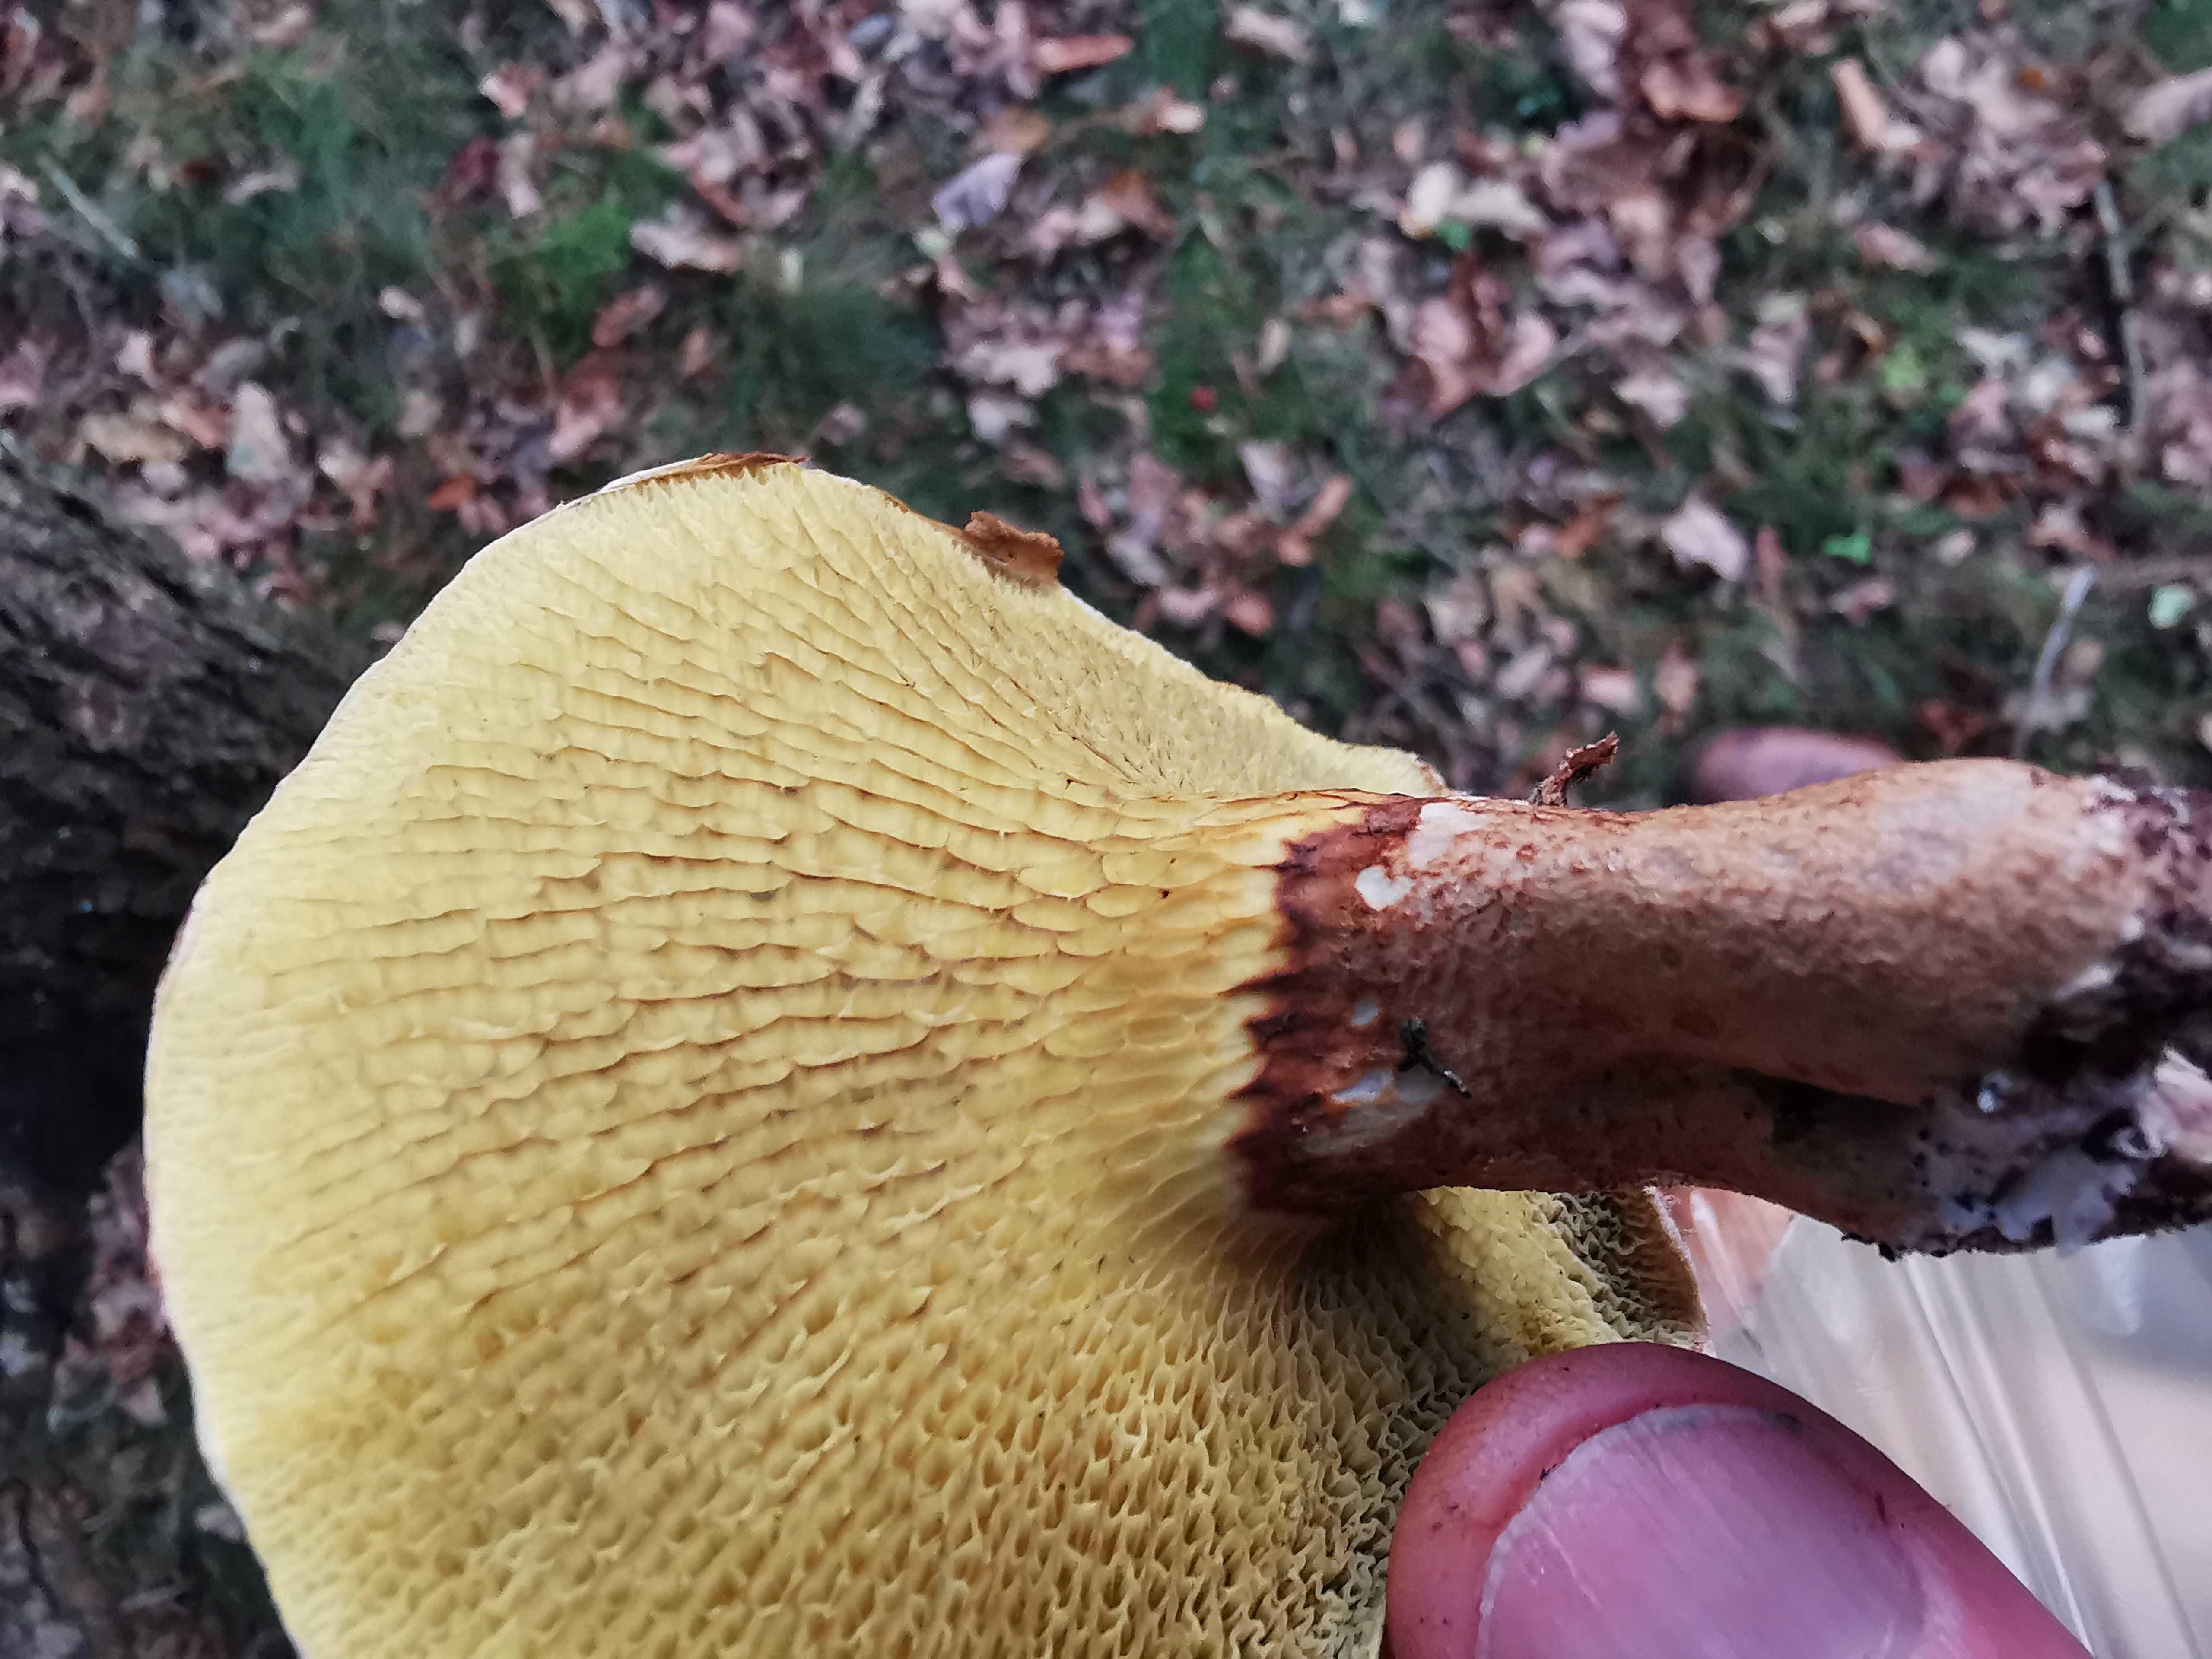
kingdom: Fungi
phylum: Basidiomycota
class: Agaricomycetes
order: Boletales
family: Suillaceae
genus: Suillus
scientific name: Suillus cavipes
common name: hulstokket slimrørhat
